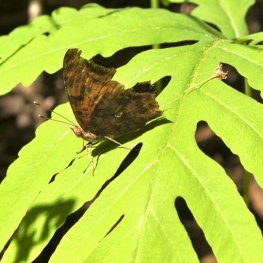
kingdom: Animalia
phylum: Arthropoda
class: Insecta
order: Lepidoptera
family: Nymphalidae
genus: Polygonia
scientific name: Polygonia interrogationis
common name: Question Mark
